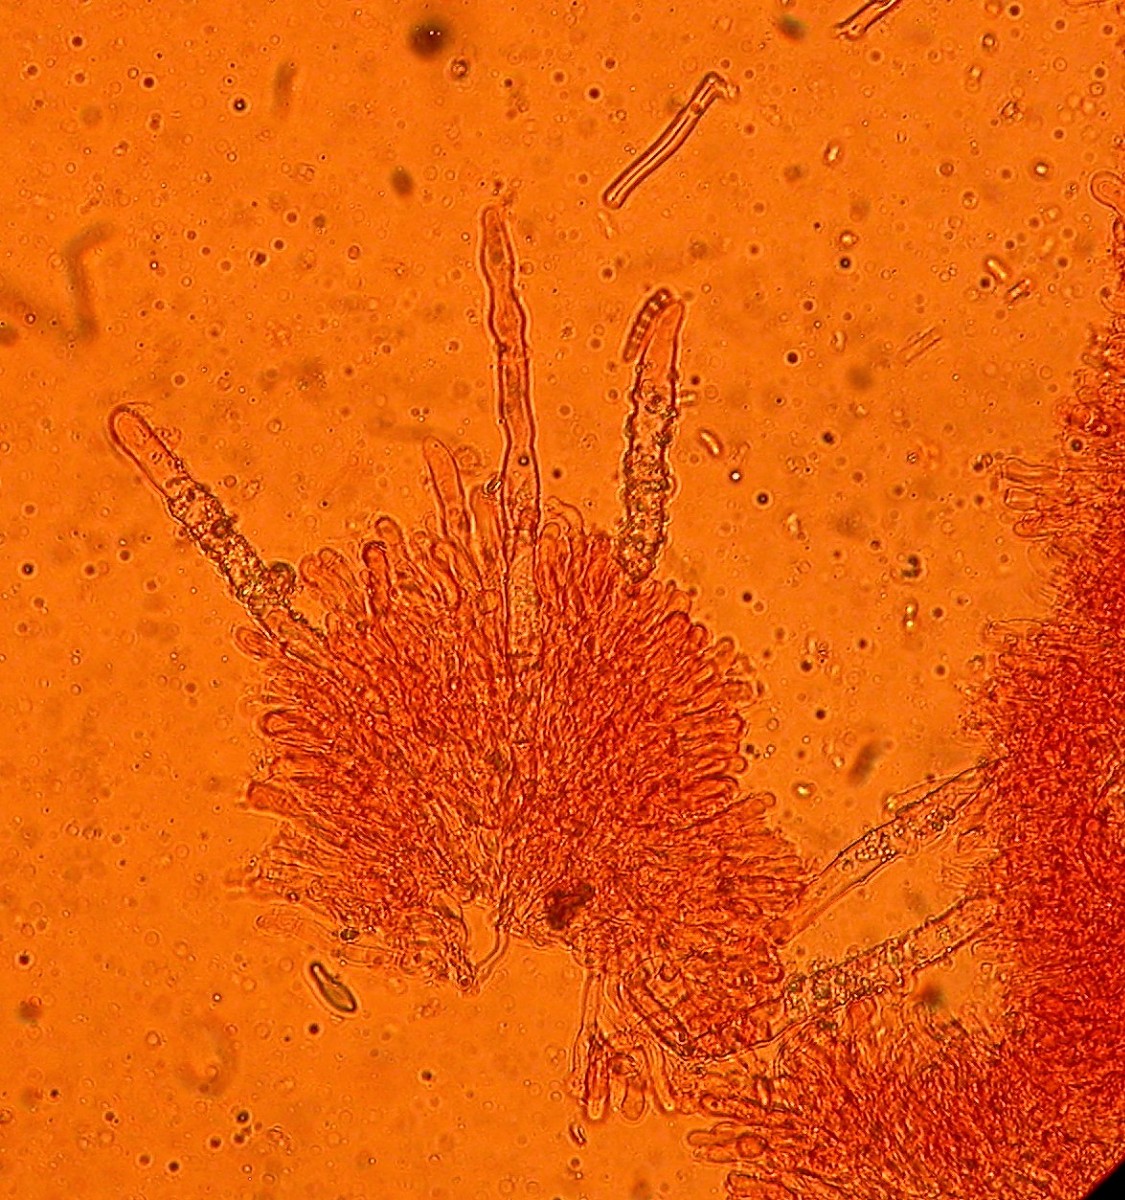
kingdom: Fungi
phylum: Basidiomycota
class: Agaricomycetes
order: Polyporales
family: Hyphodermataceae
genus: Hyphoderma
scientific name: Hyphoderma setigerum
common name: håret kalkskind
